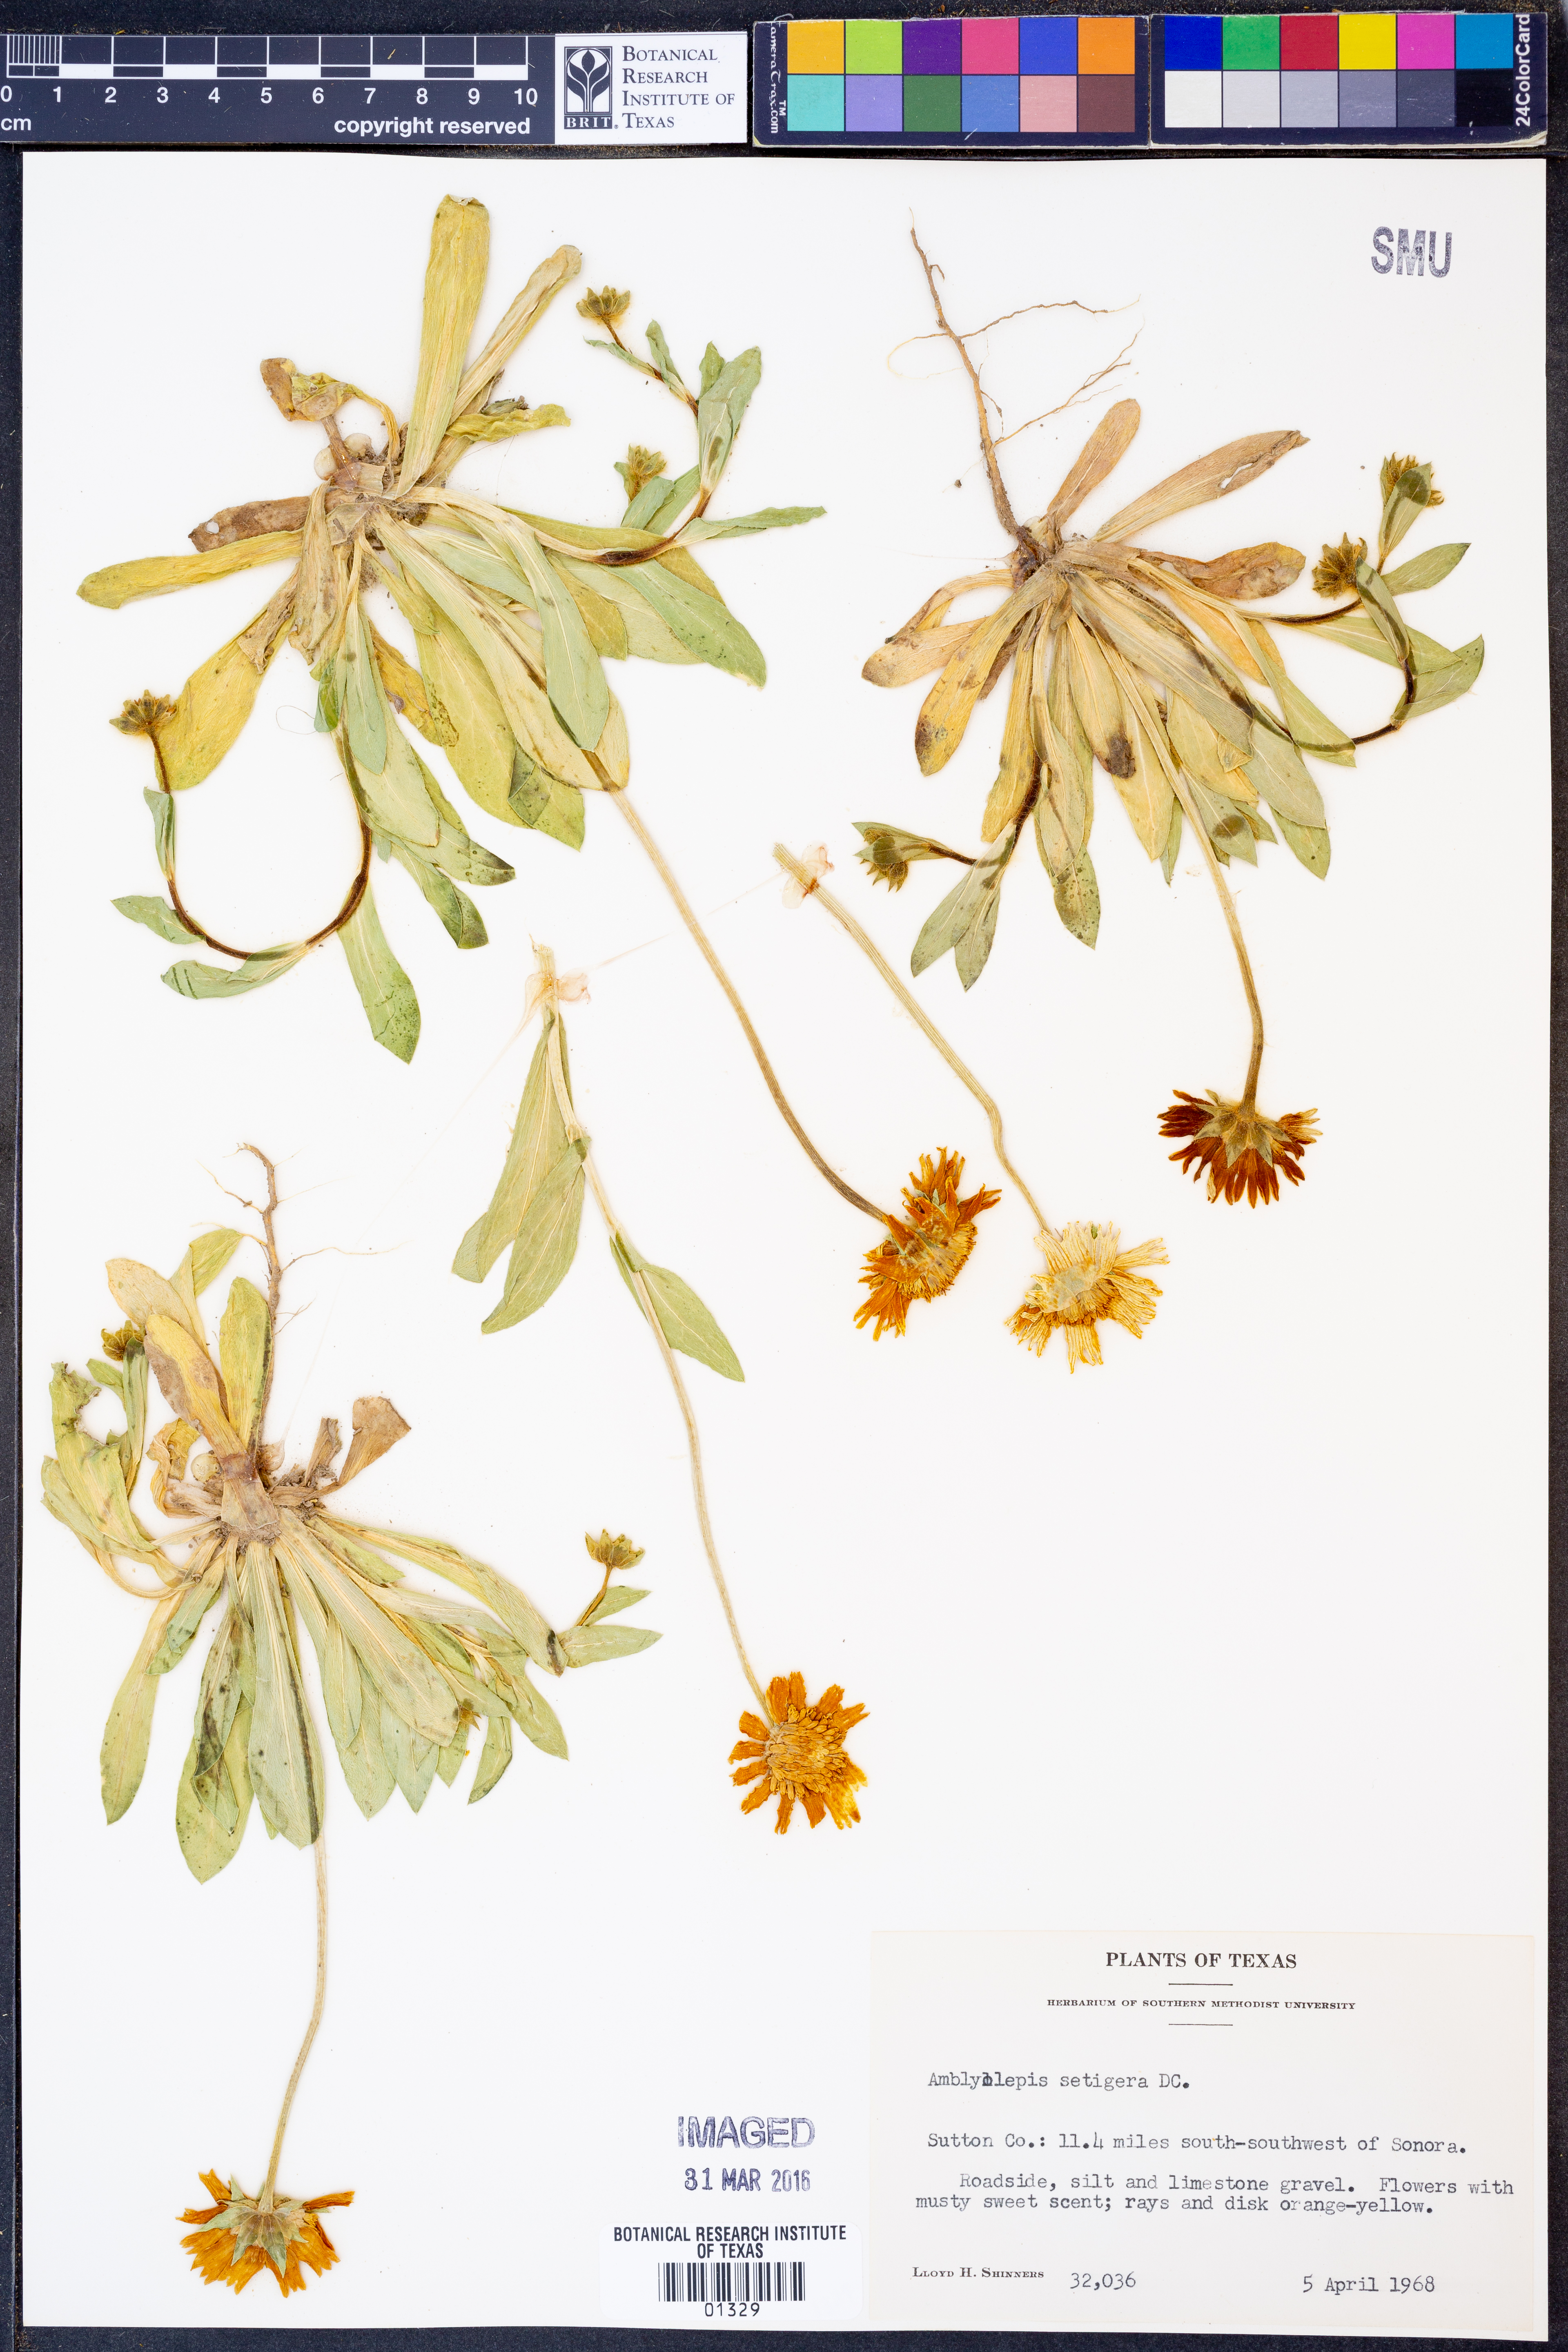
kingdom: Plantae
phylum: Tracheophyta
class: Magnoliopsida
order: Asterales
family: Asteraceae
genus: Amblyolepis
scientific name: Amblyolepis setigera
